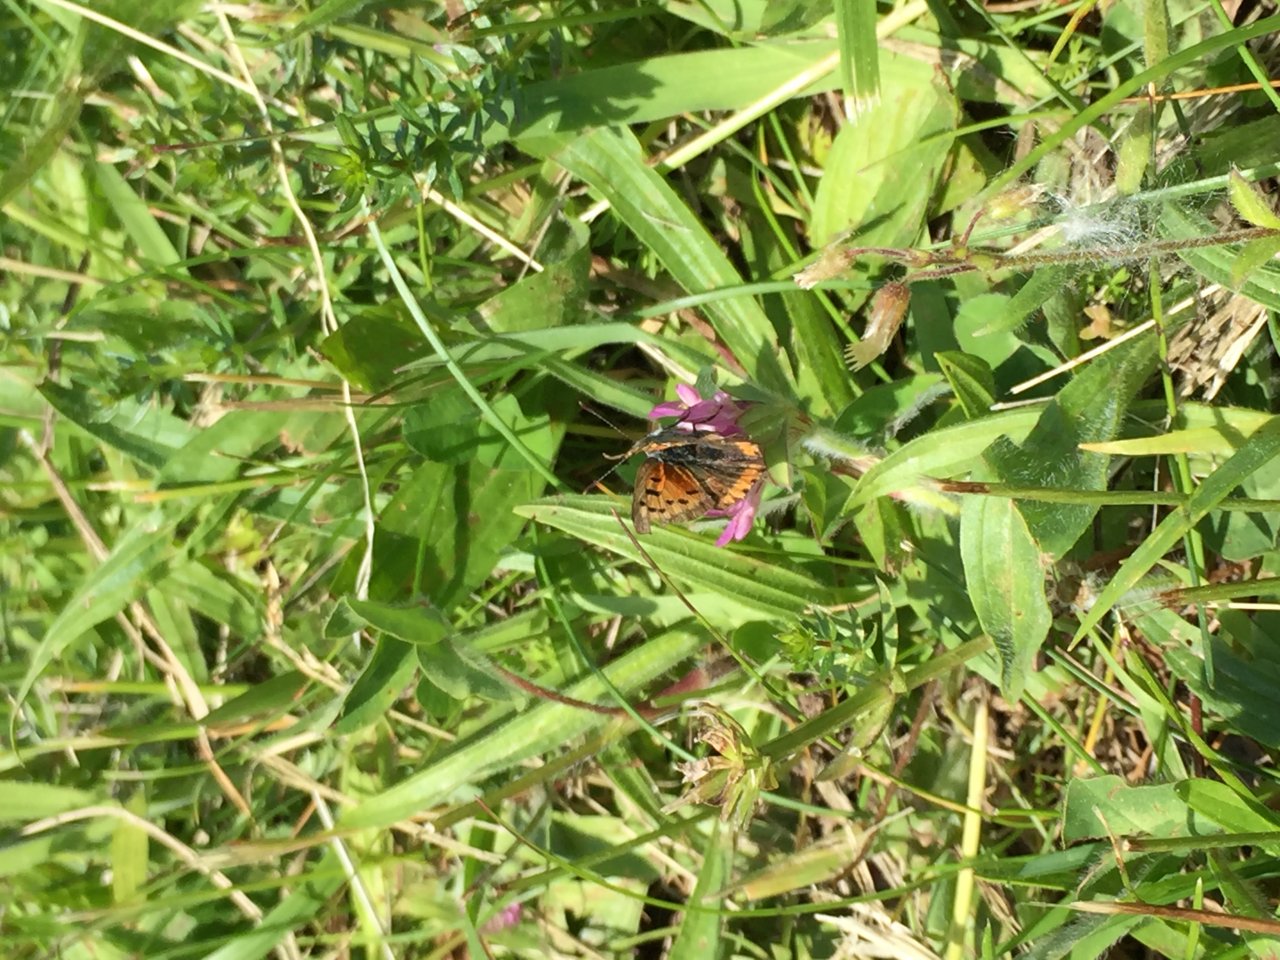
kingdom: Animalia
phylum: Arthropoda
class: Insecta
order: Lepidoptera
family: Lycaenidae
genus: Lycaena
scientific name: Lycaena phlaeas
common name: American Copper
